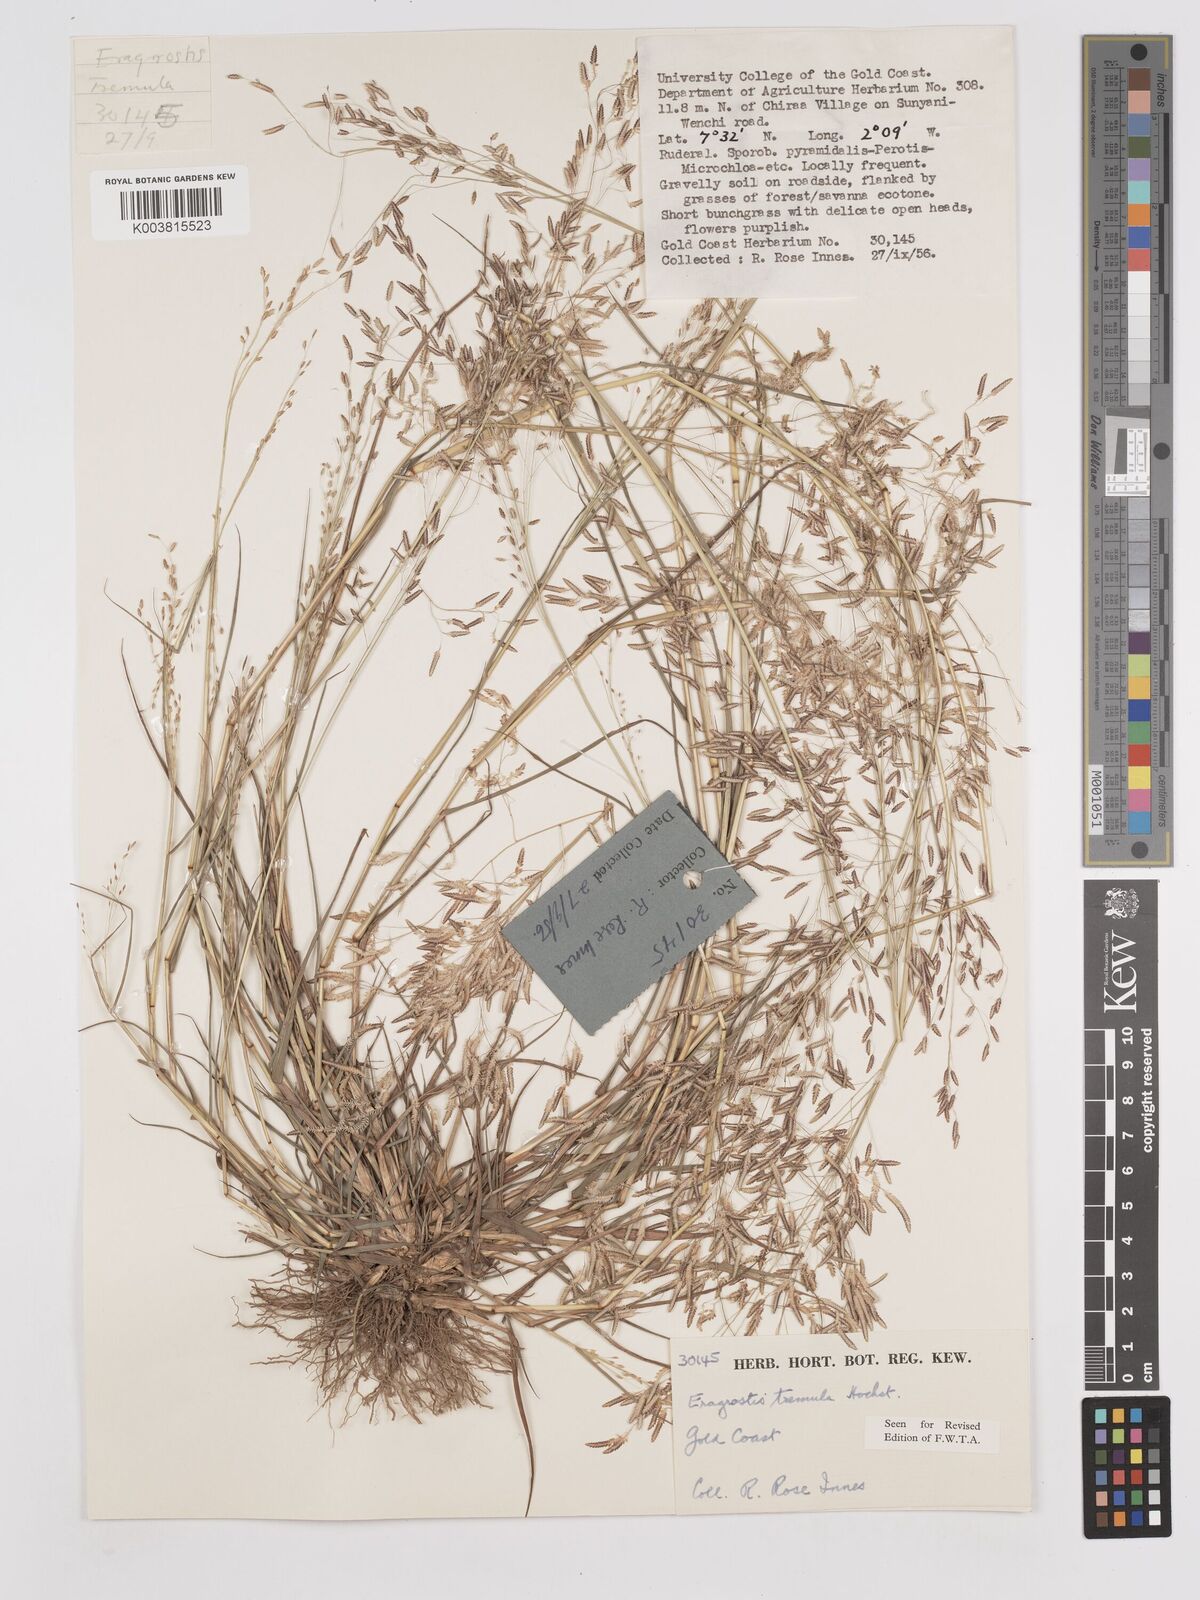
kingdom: Plantae
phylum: Tracheophyta
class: Liliopsida
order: Poales
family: Poaceae
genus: Eragrostis
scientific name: Eragrostis tremula
